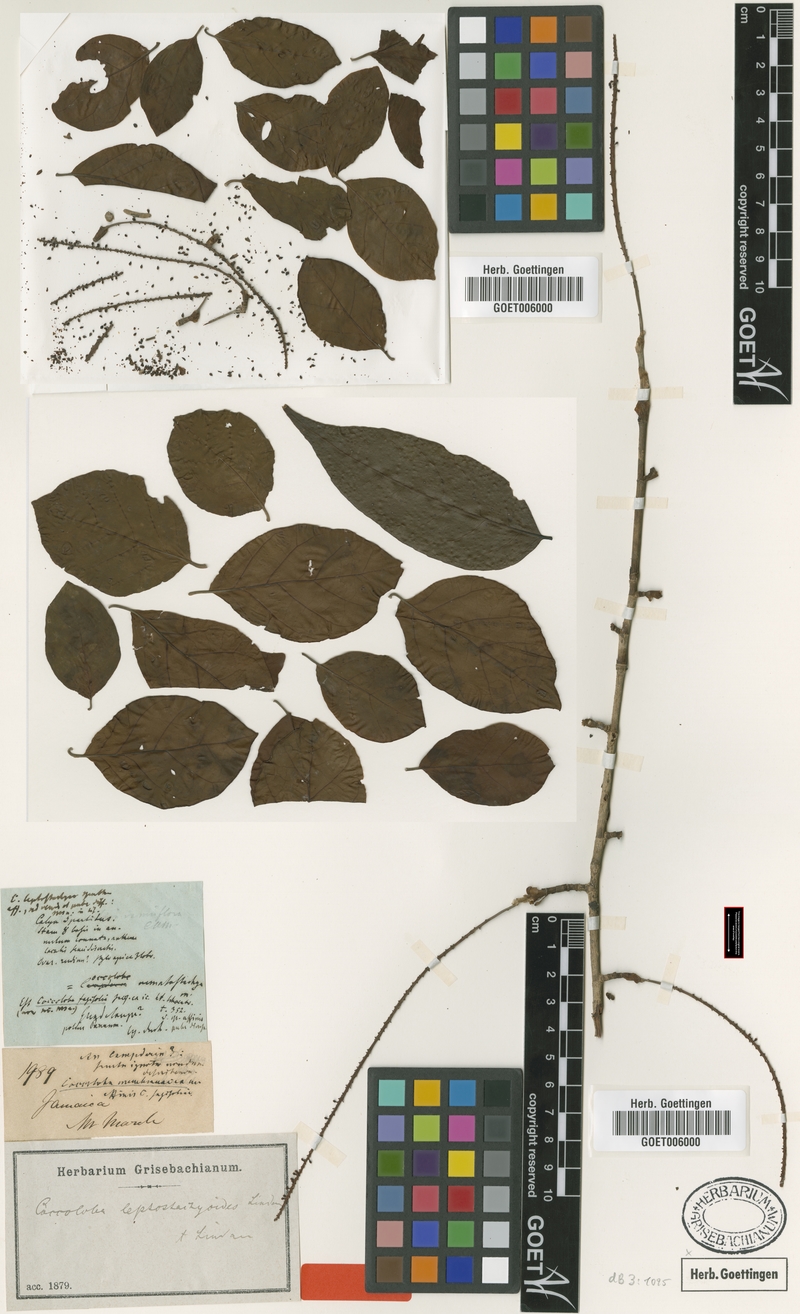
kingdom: Plantae
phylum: Tracheophyta
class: Magnoliopsida
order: Caryophyllales
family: Polygonaceae
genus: Coccoloba
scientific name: Coccoloba tenuifolia
